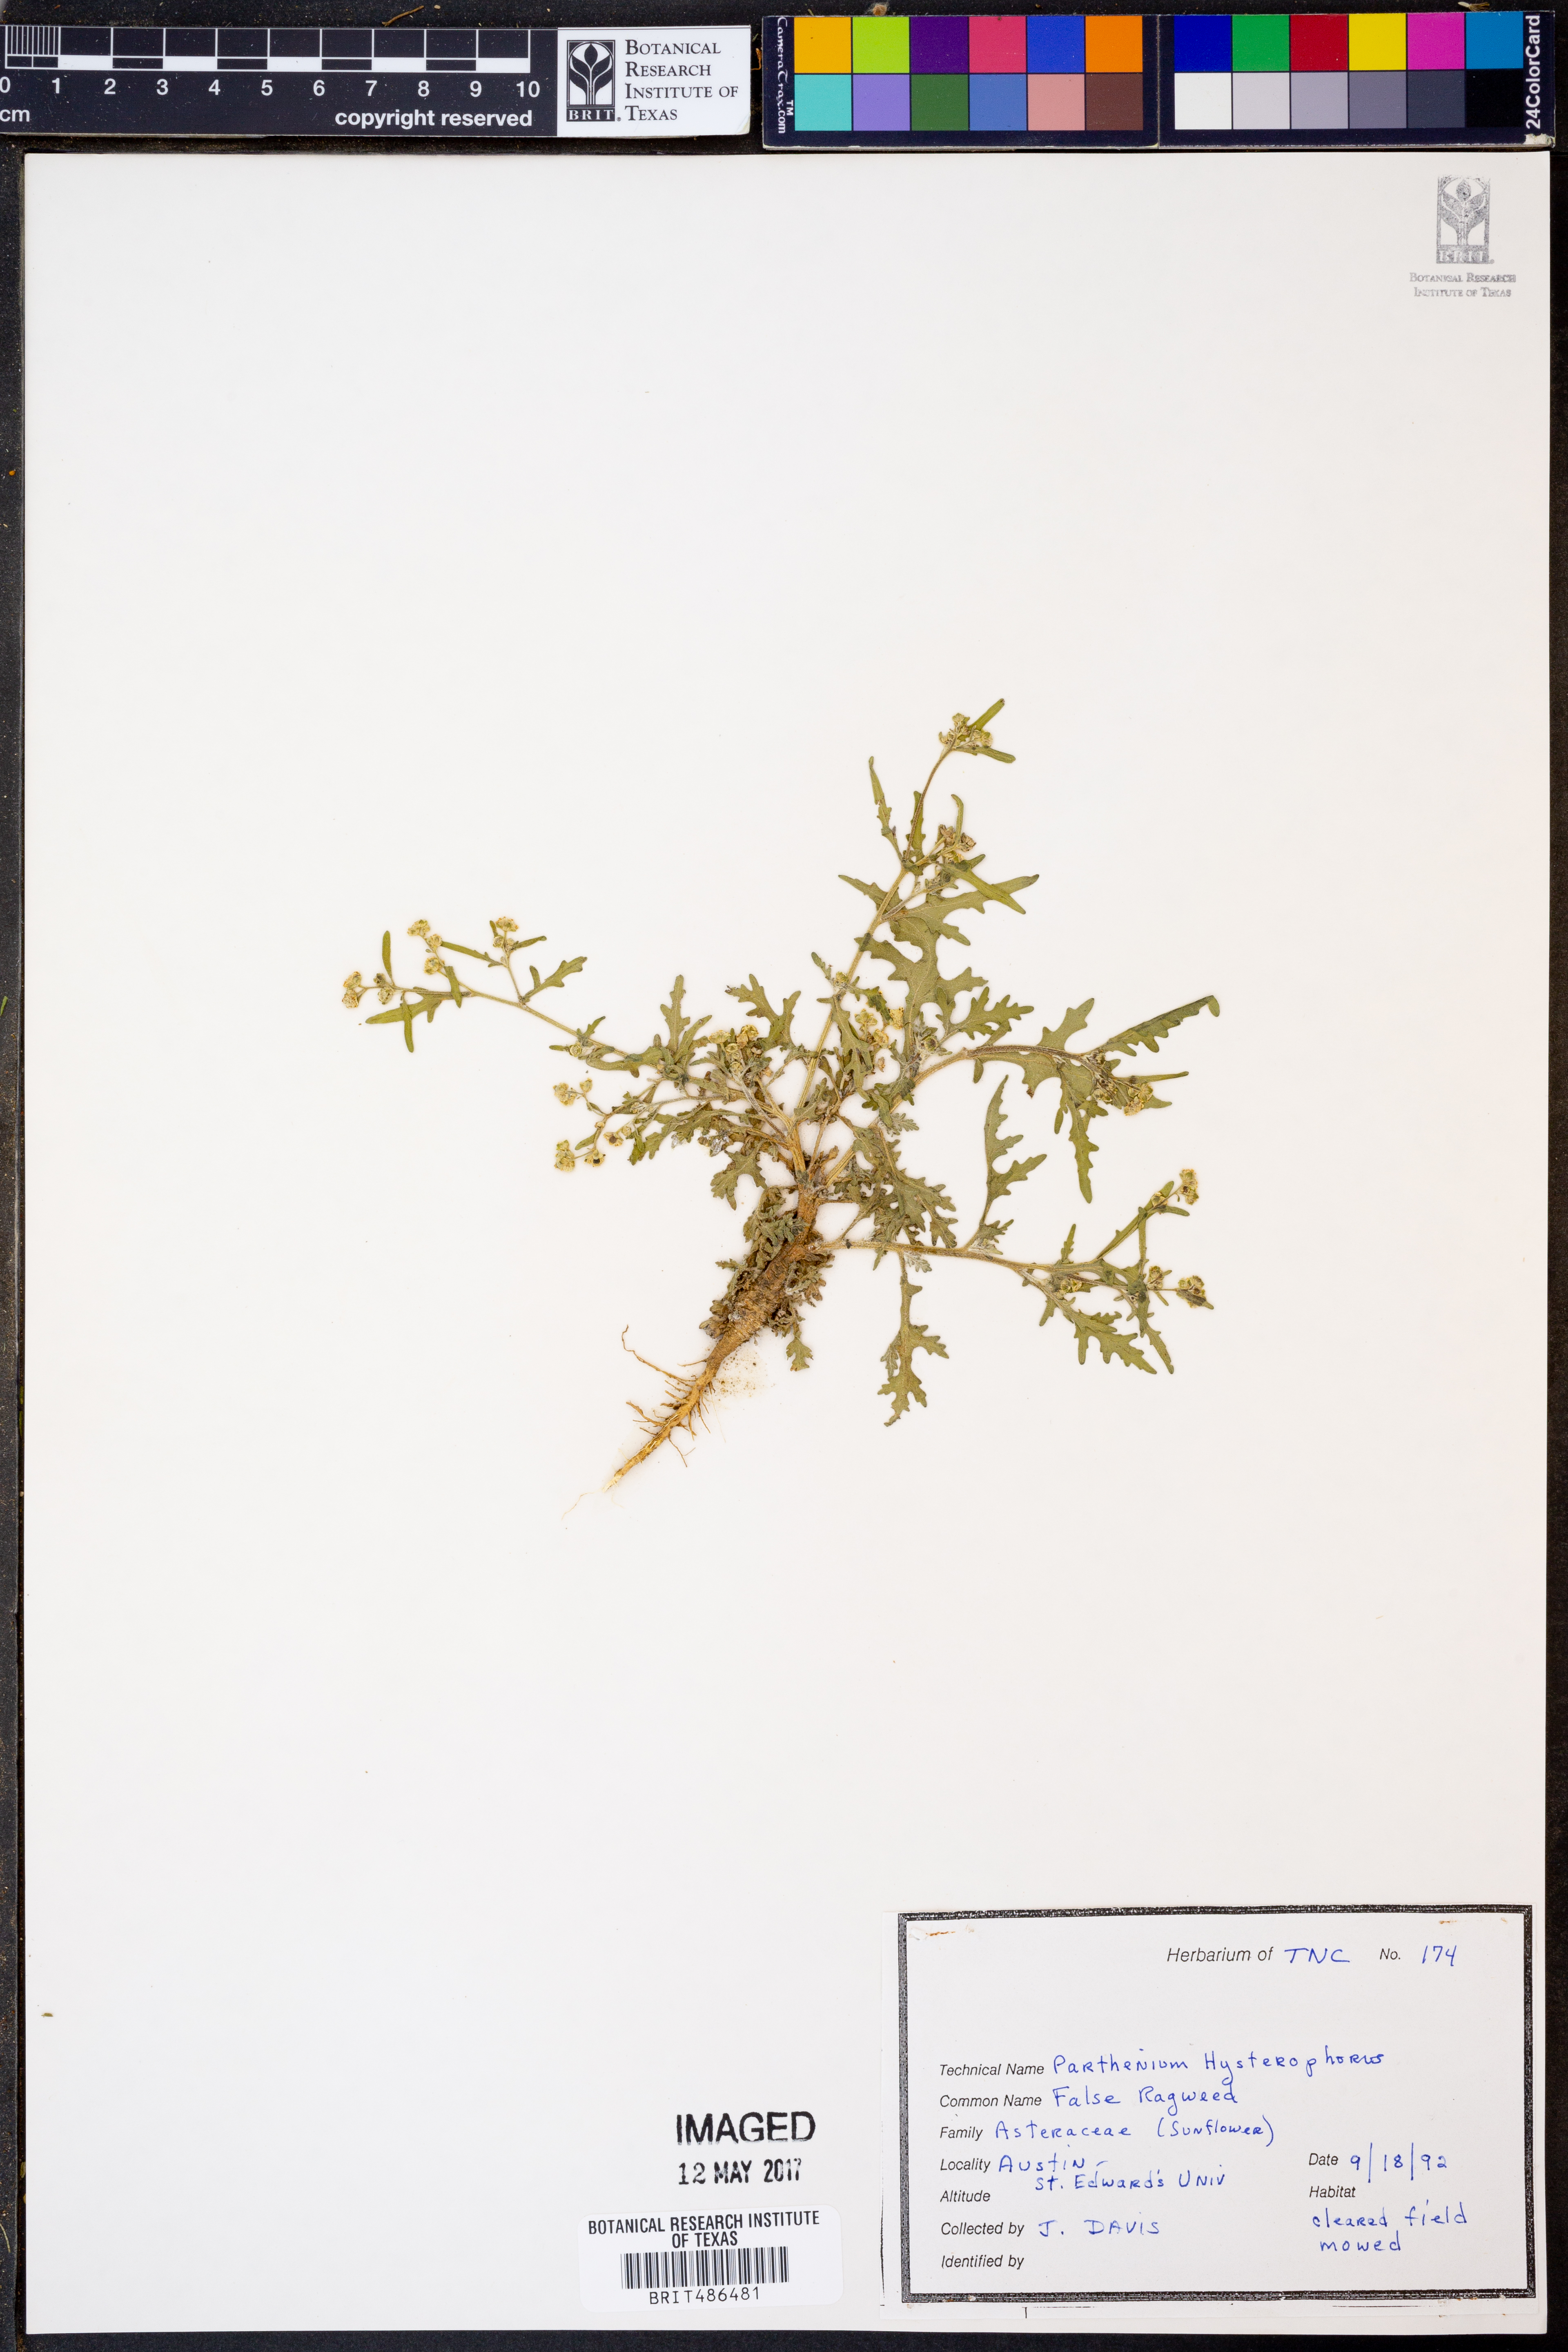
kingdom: Plantae
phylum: Tracheophyta
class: Magnoliopsida
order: Asterales
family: Asteraceae
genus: Parthenium
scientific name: Parthenium hysterophorus
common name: Santa maria feverfew
